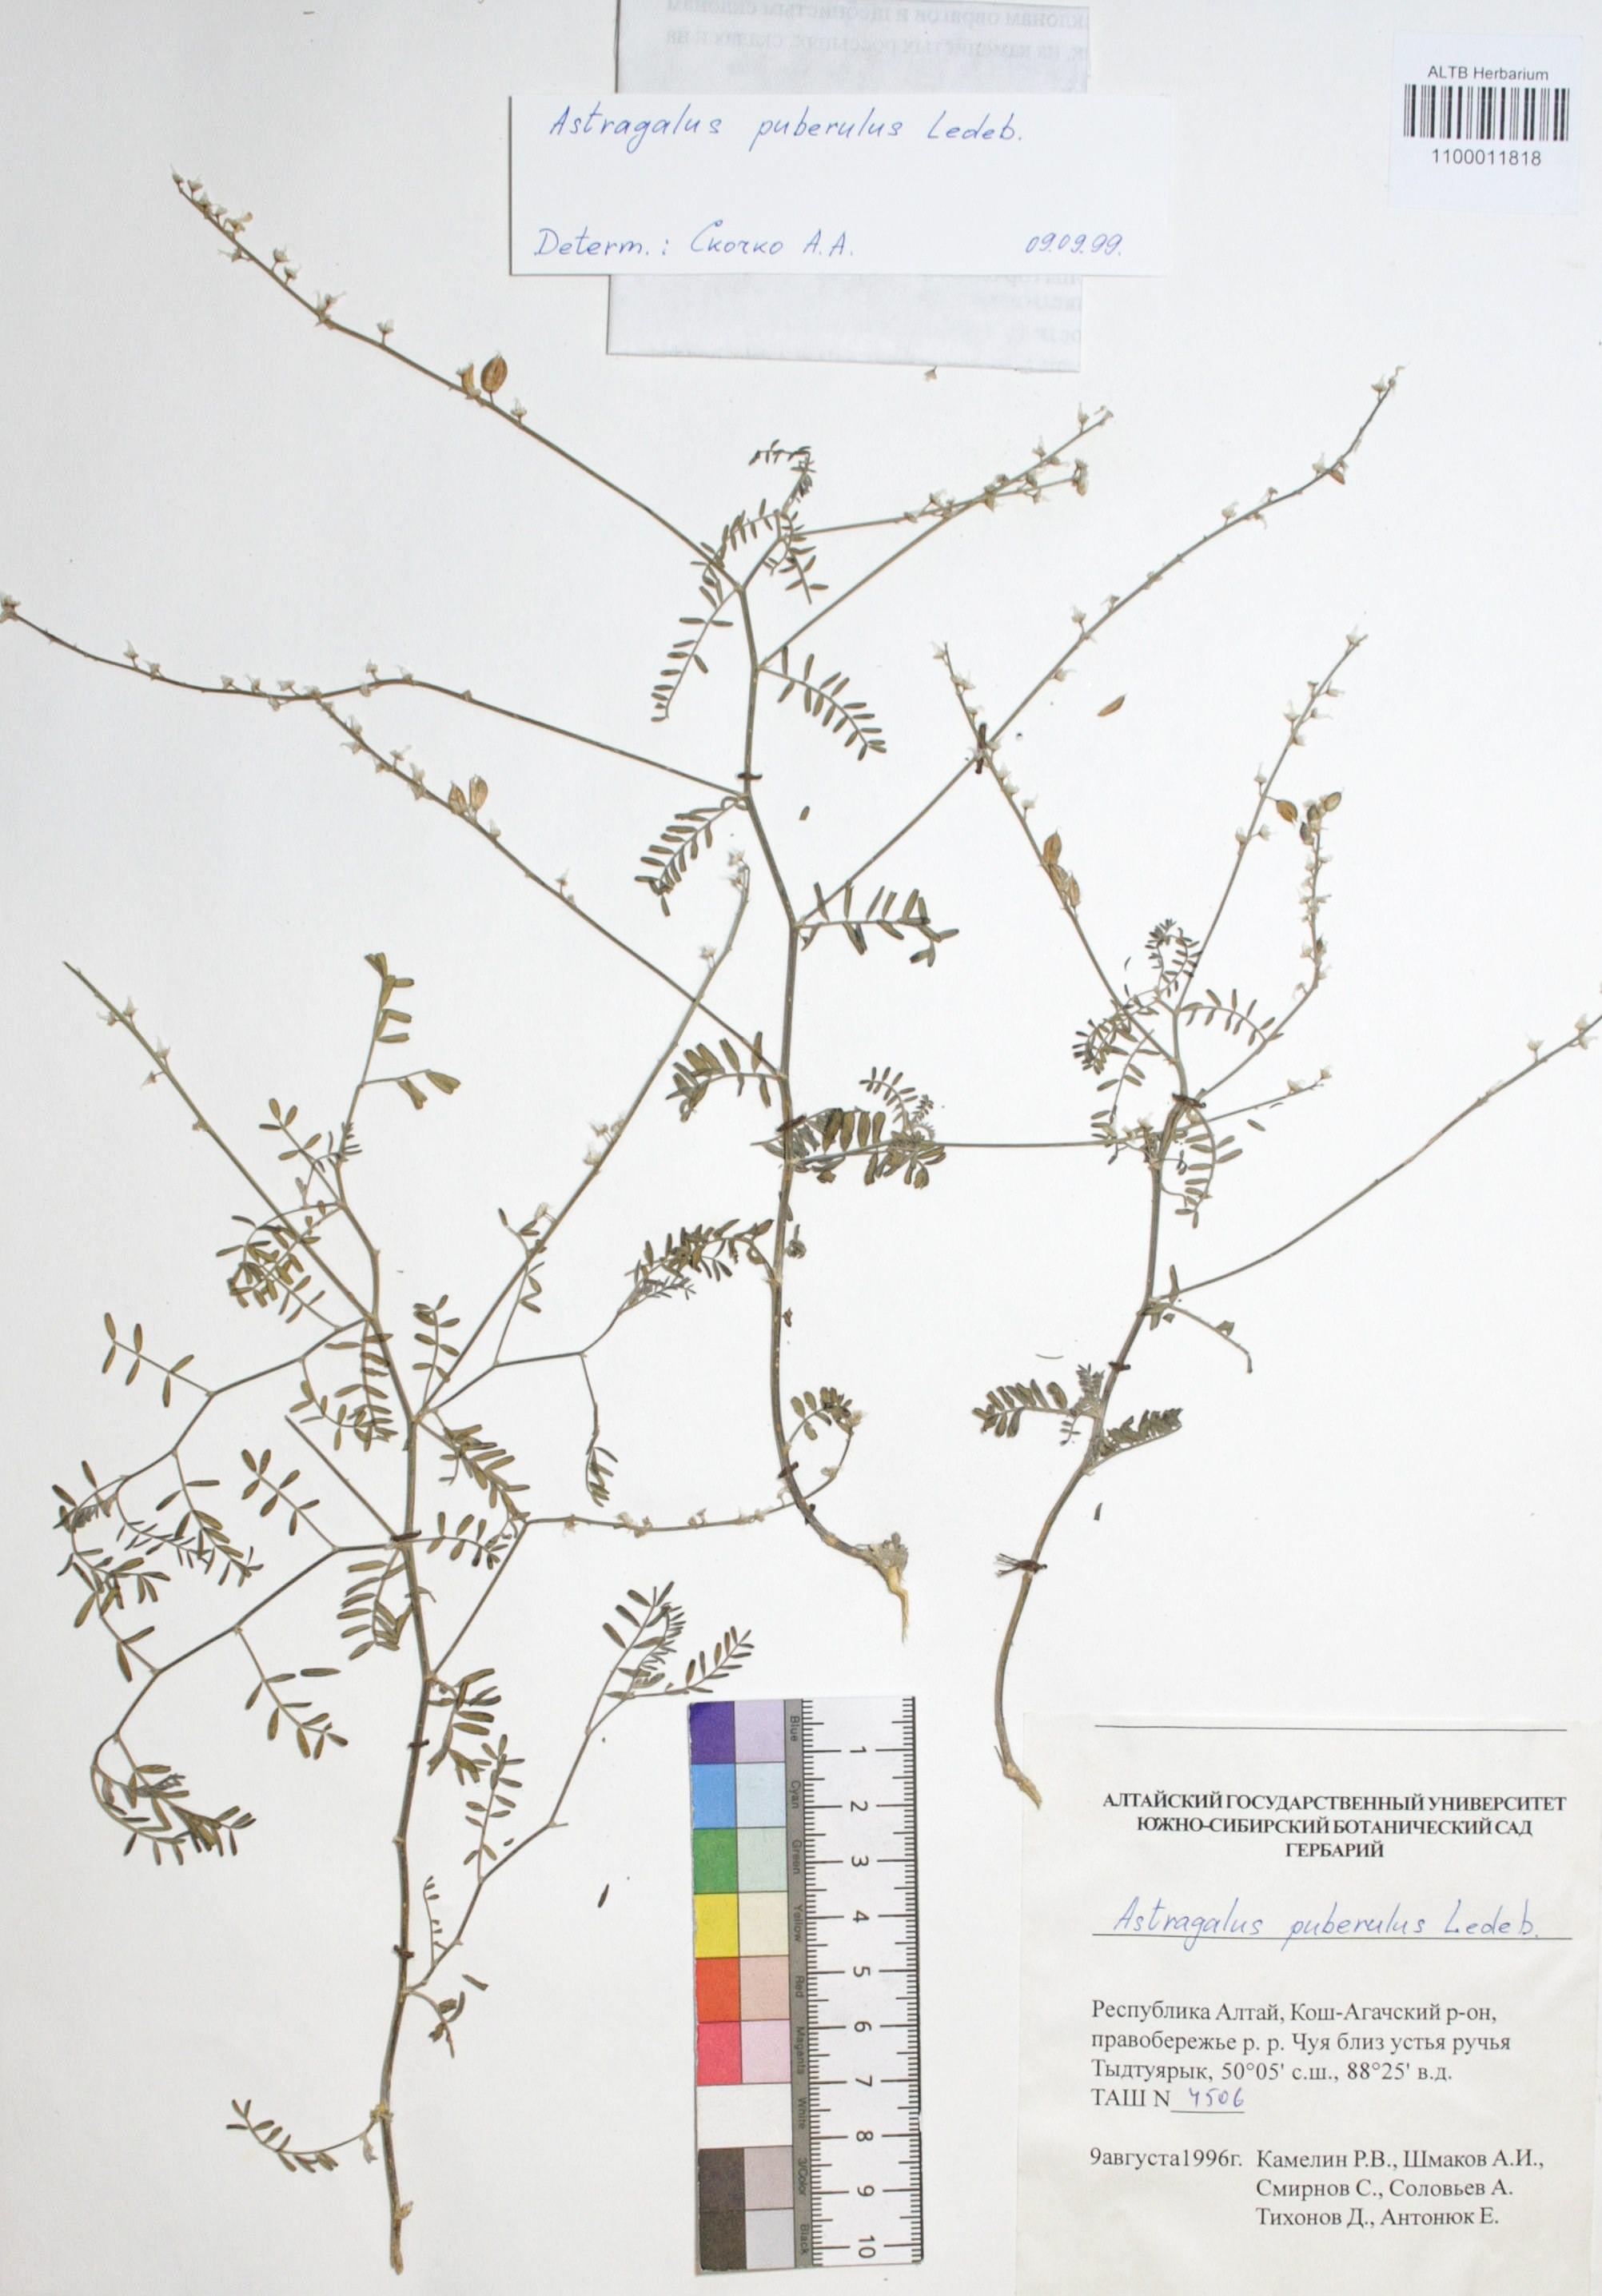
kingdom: Plantae
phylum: Tracheophyta
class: Magnoliopsida
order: Fabales
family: Fabaceae
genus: Astragalus
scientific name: Astragalus puberulus
